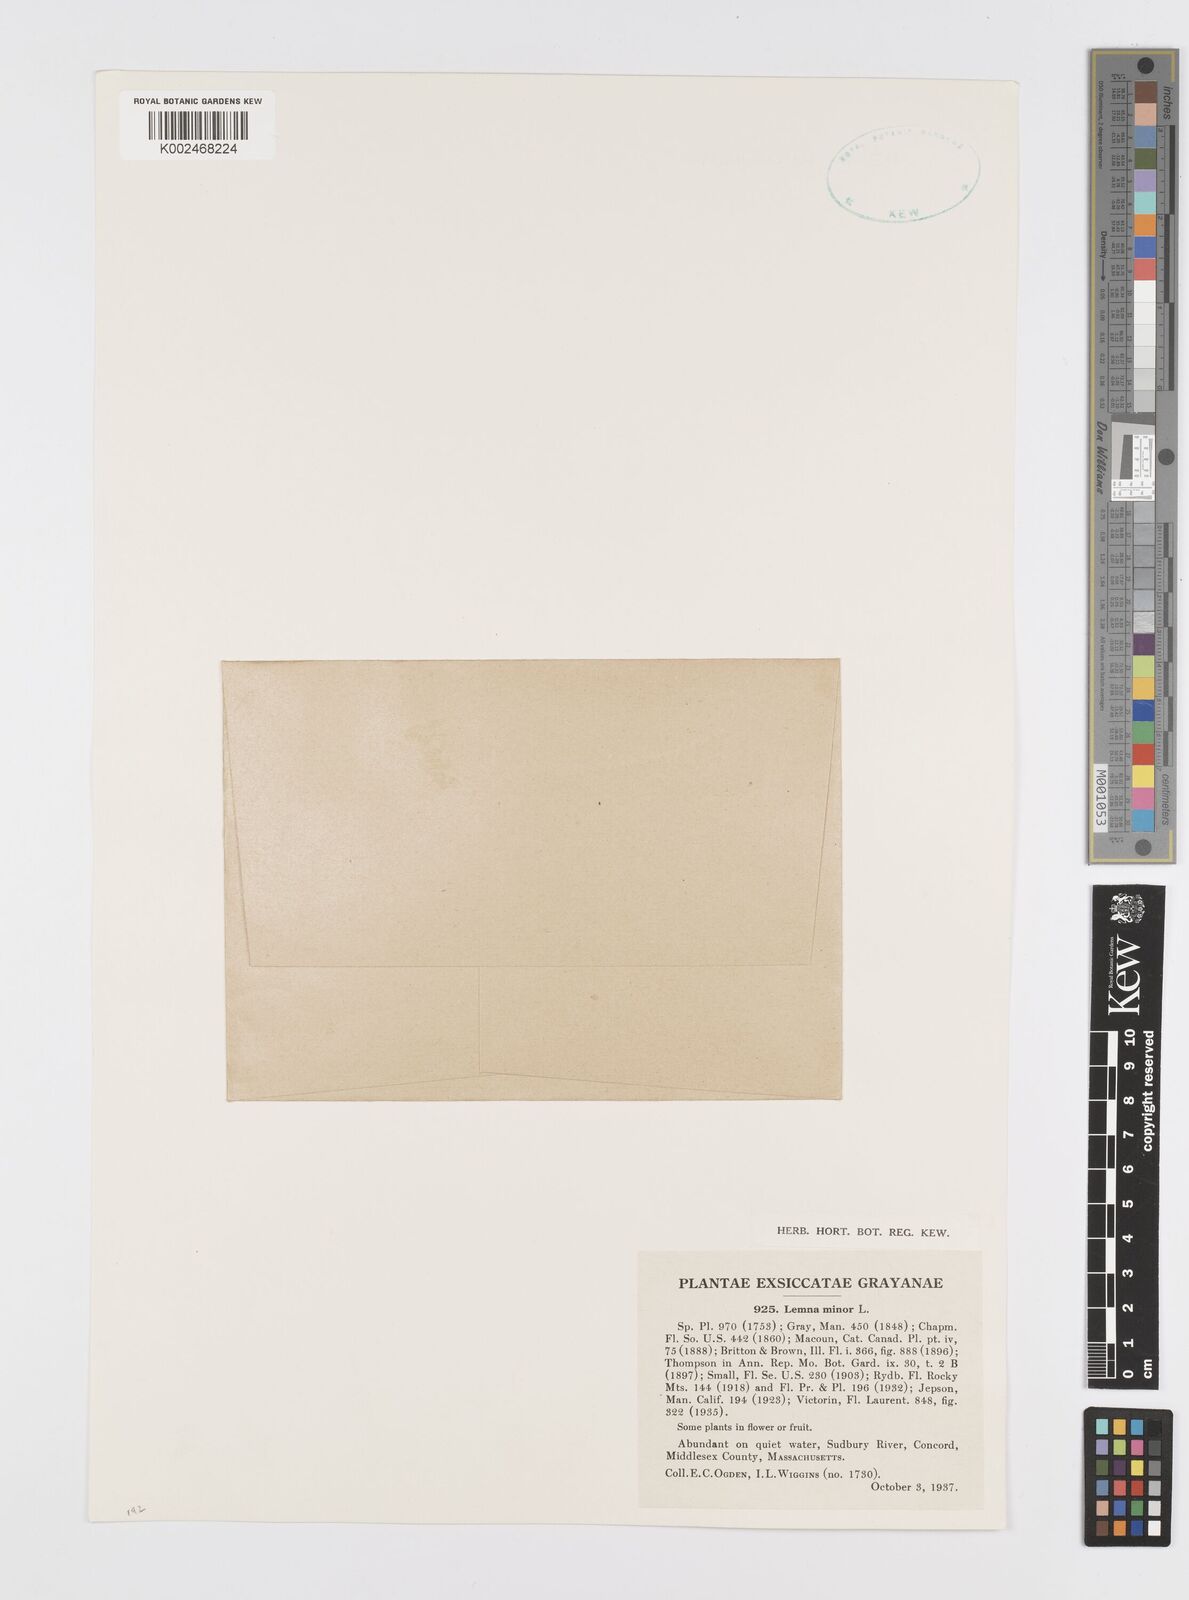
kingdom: Plantae
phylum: Tracheophyta
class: Liliopsida
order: Alismatales
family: Araceae
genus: Lemna
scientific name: Lemna minor
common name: Common duckweed
